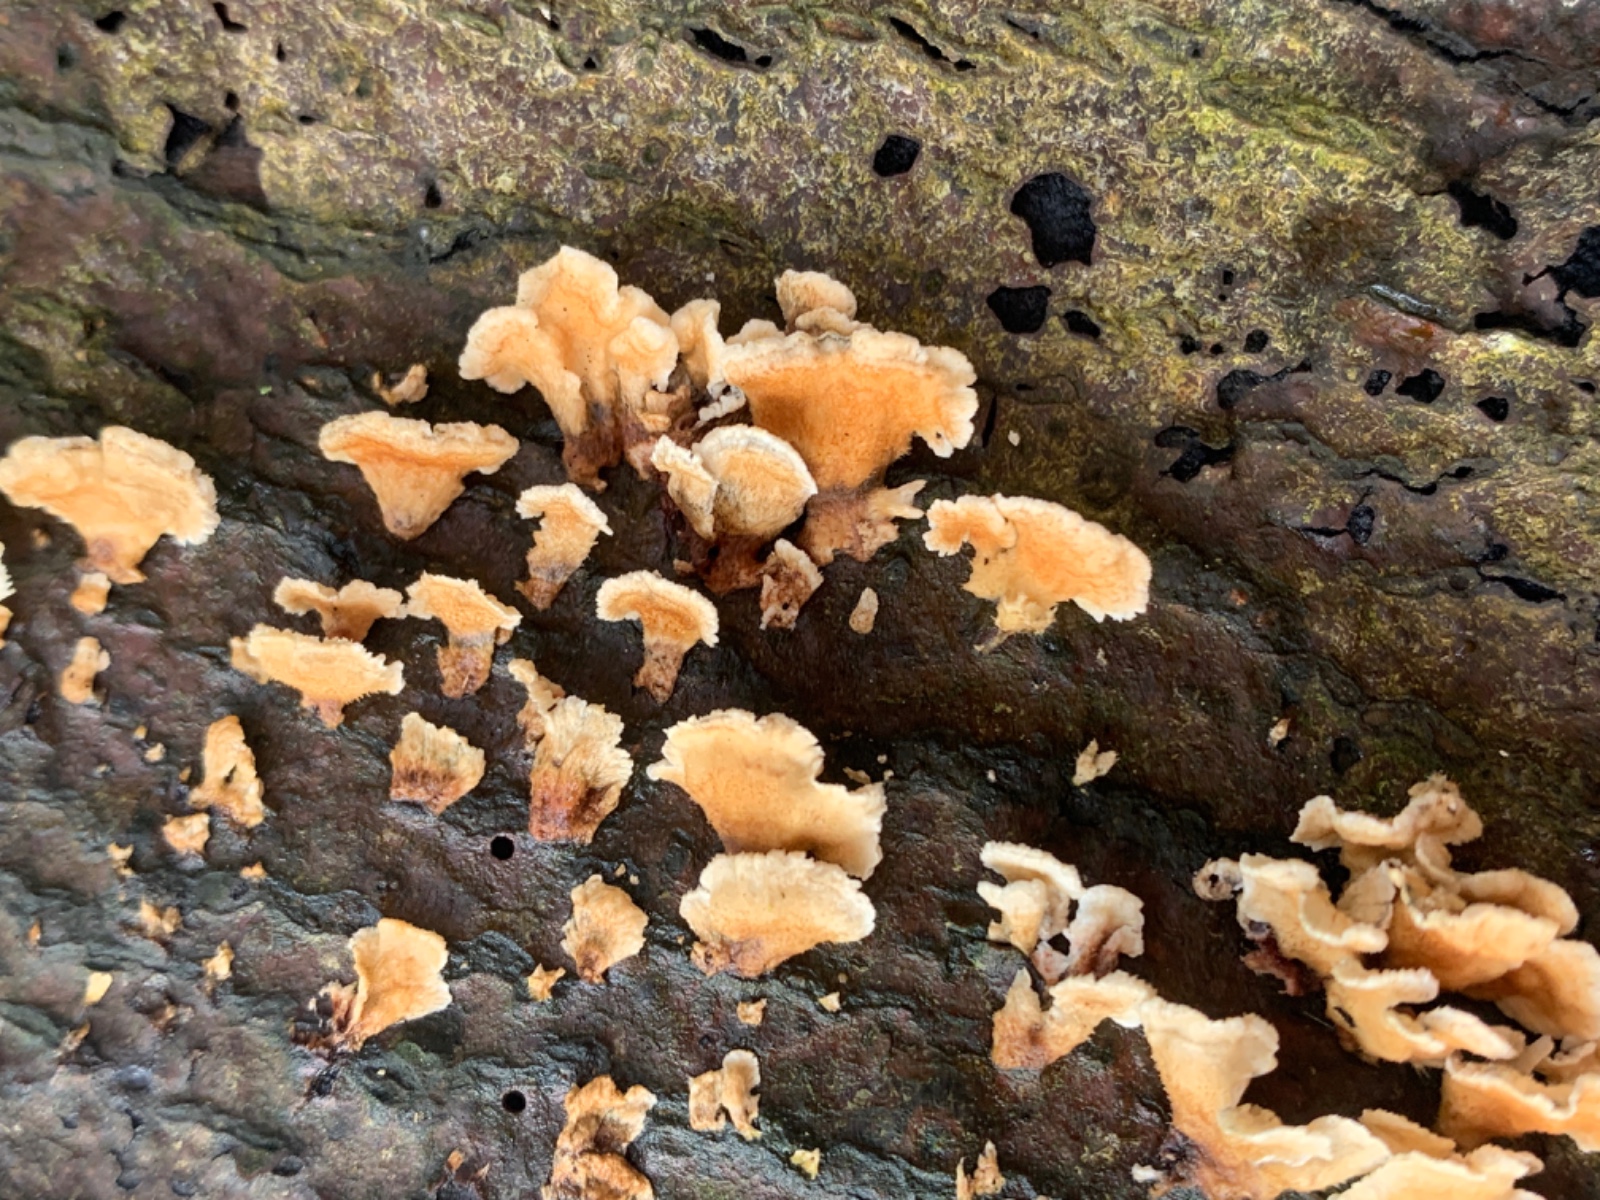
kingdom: Fungi
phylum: Basidiomycota
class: Agaricomycetes
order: Amylocorticiales
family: Amylocorticiaceae
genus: Plicaturopsis
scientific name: Plicaturopsis crispa
